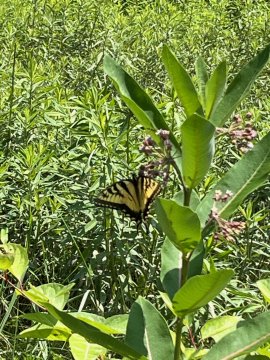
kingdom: Animalia
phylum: Arthropoda
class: Insecta
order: Lepidoptera
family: Papilionidae
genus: Pterourus
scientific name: Pterourus glaucus
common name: Eastern Tiger Swallowtail
